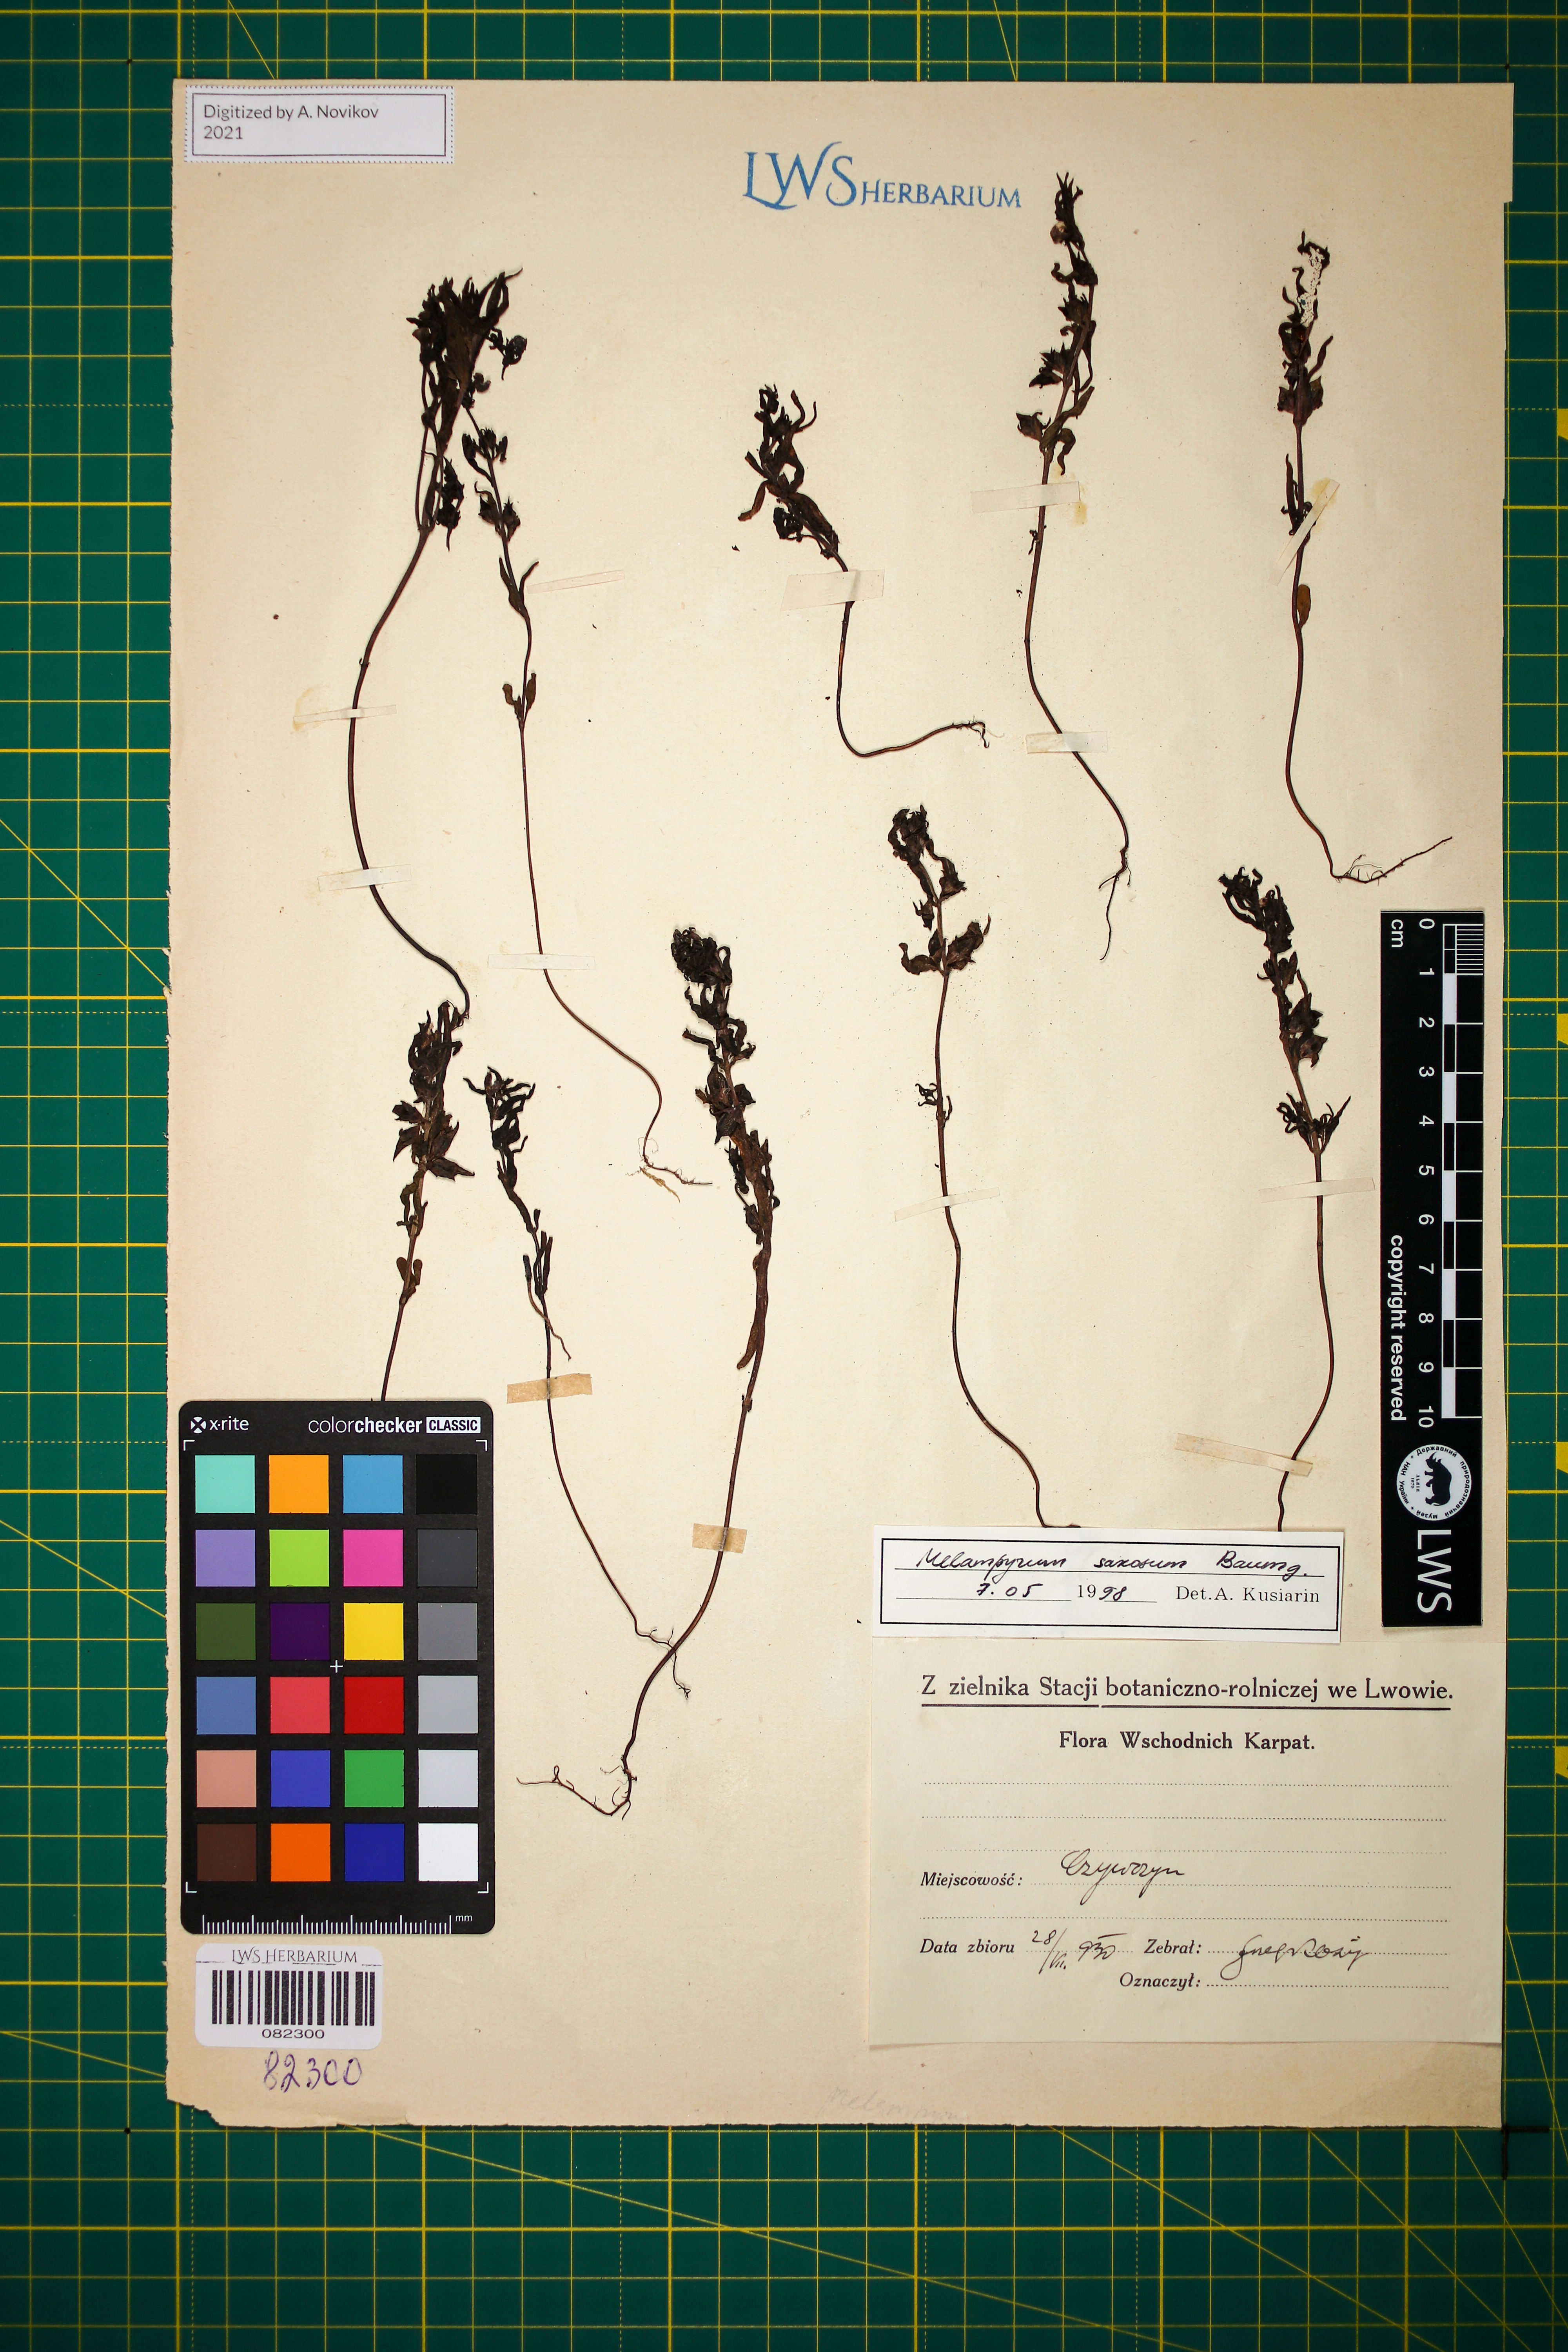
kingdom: Plantae
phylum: Tracheophyta
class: Magnoliopsida
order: Lamiales
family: Orobanchaceae
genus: Melampyrum
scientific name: Melampyrum saxosum
